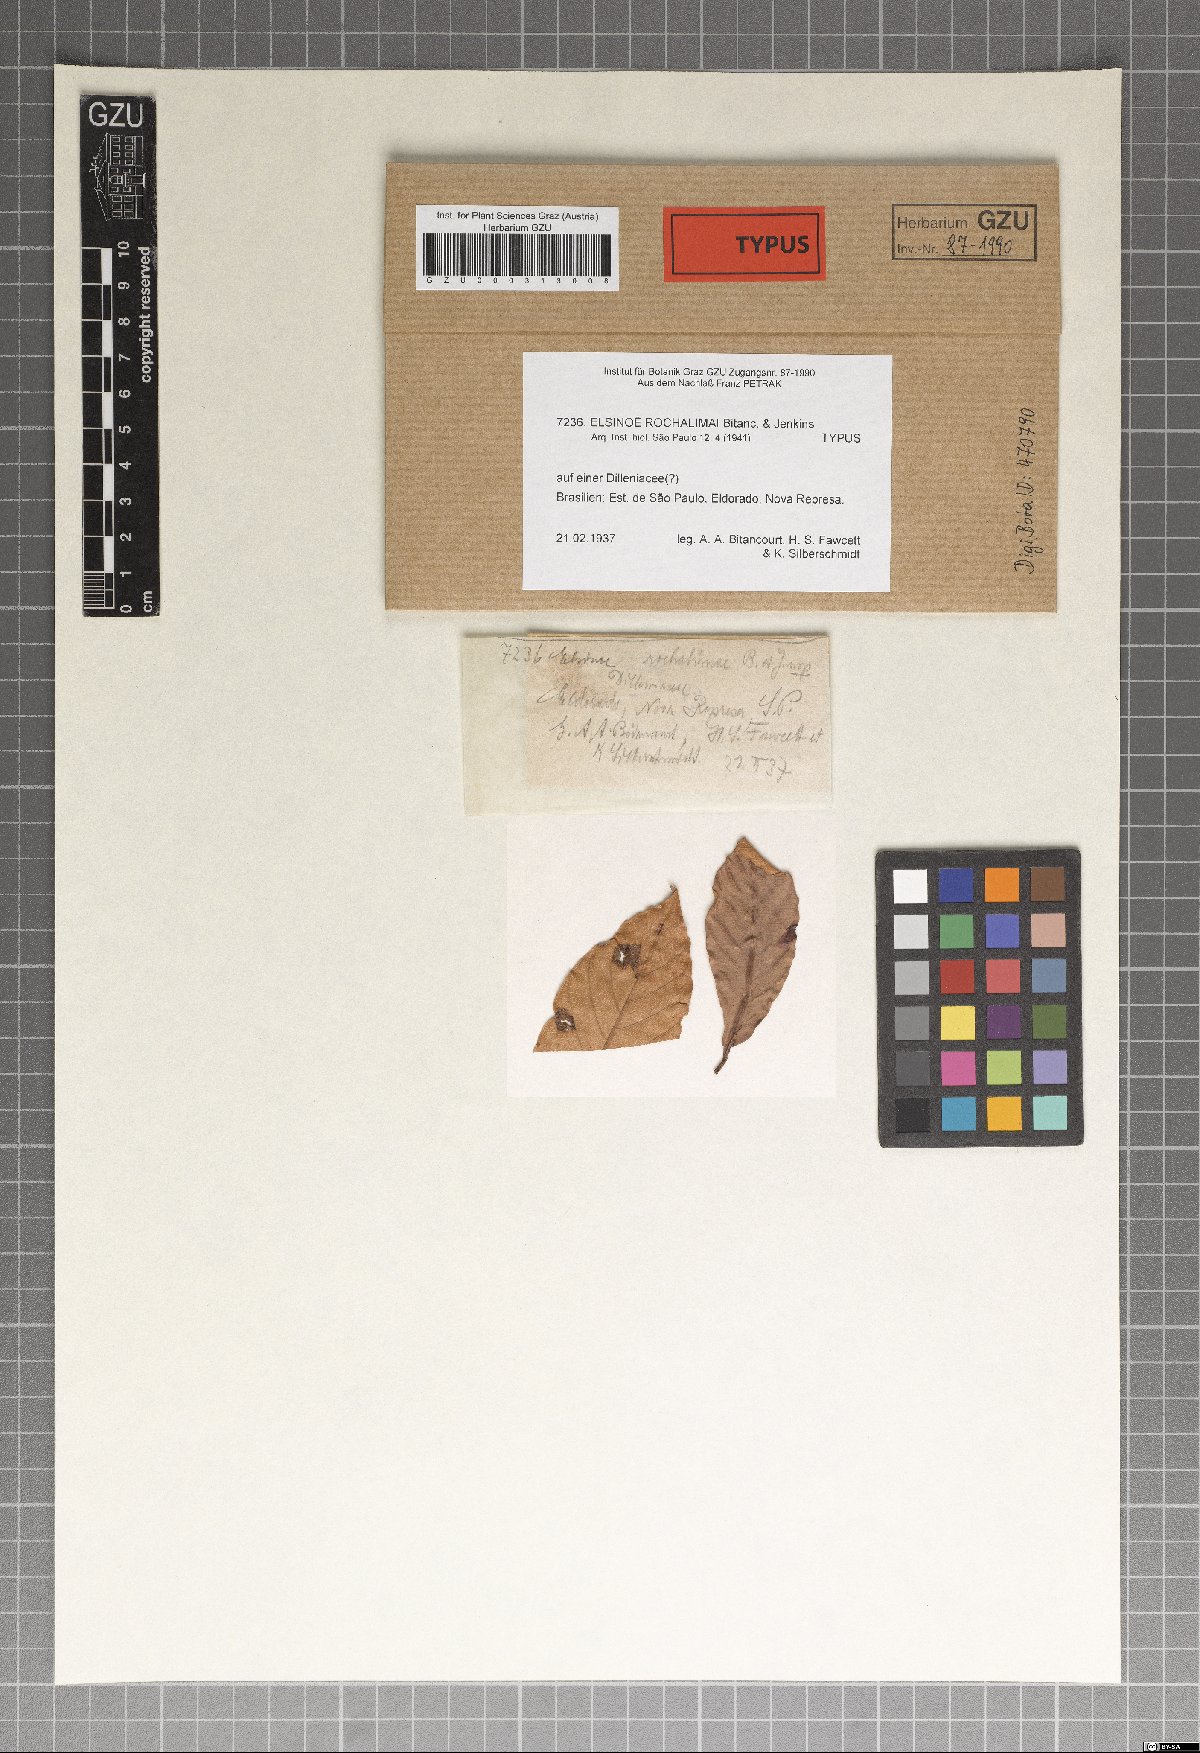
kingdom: Fungi
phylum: Ascomycota
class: Dothideomycetes
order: Myriangiales
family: Elsinoaceae
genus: Elsinoe
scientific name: Elsinoe rochalimai
